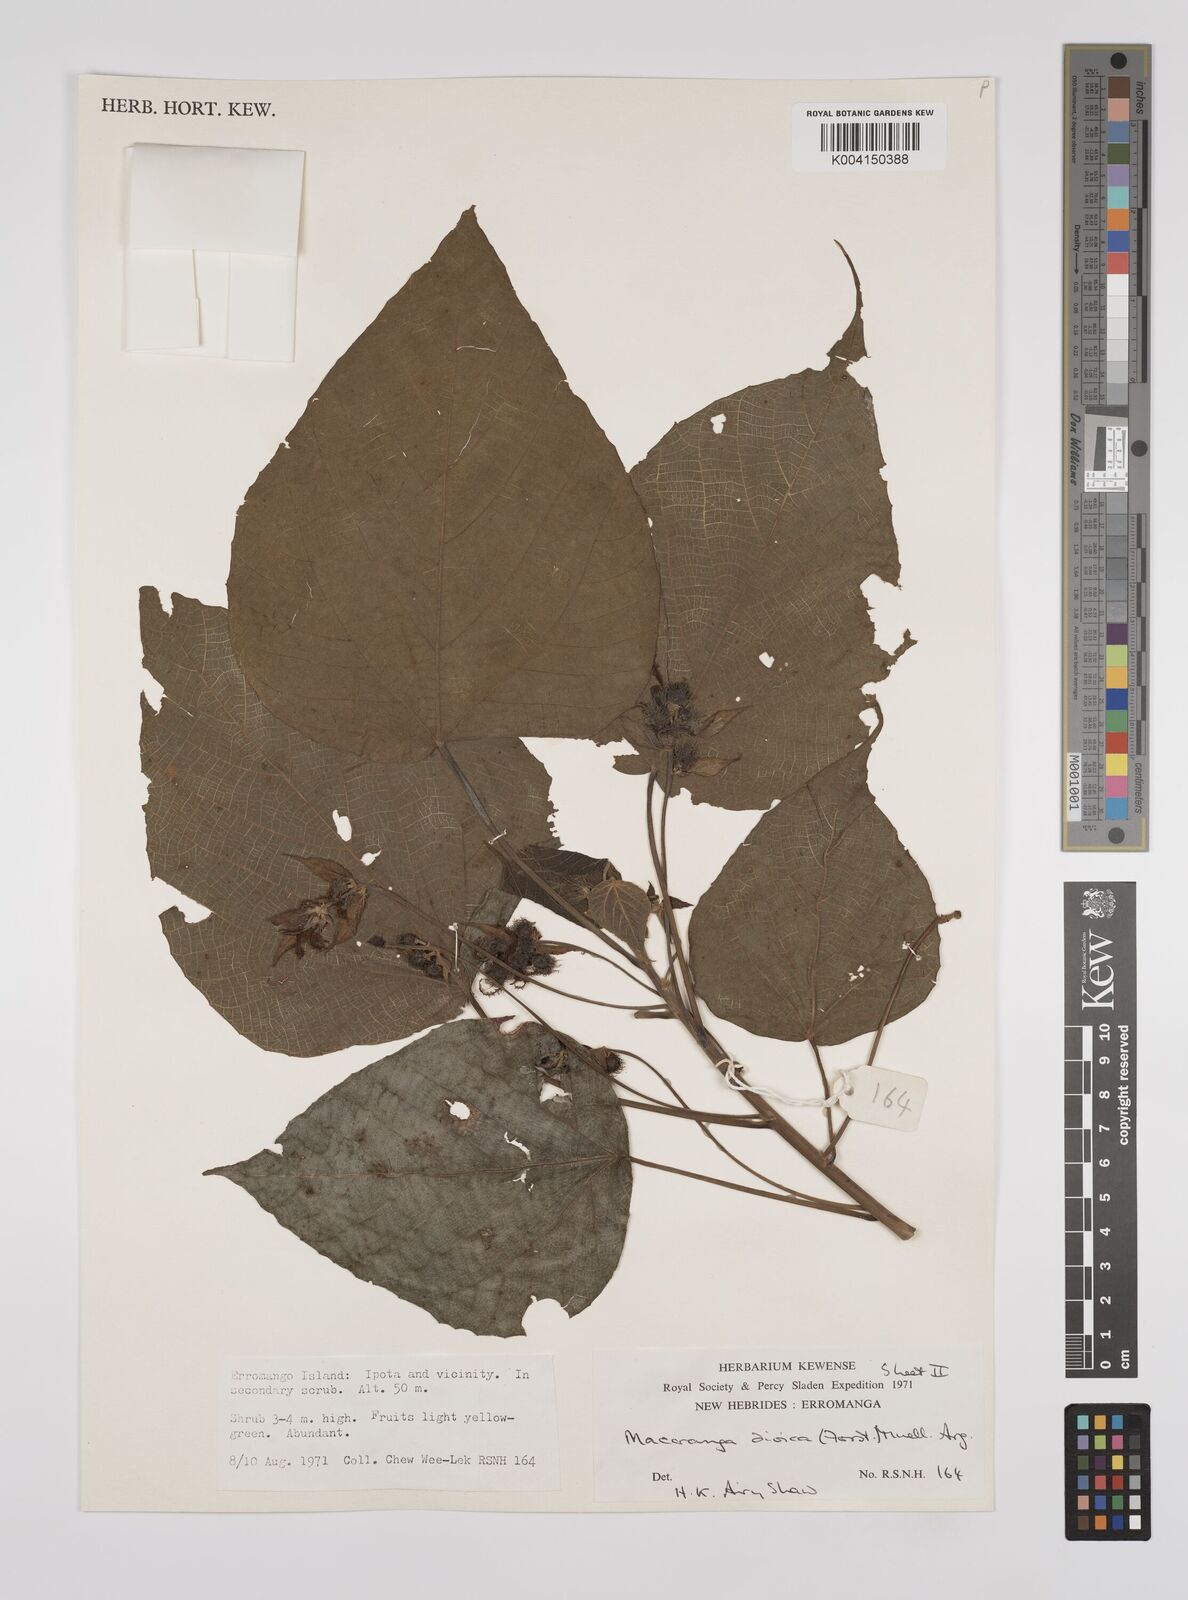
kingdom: Plantae
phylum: Tracheophyta
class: Magnoliopsida
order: Malpighiales
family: Euphorbiaceae
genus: Macaranga
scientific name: Macaranga dioica
